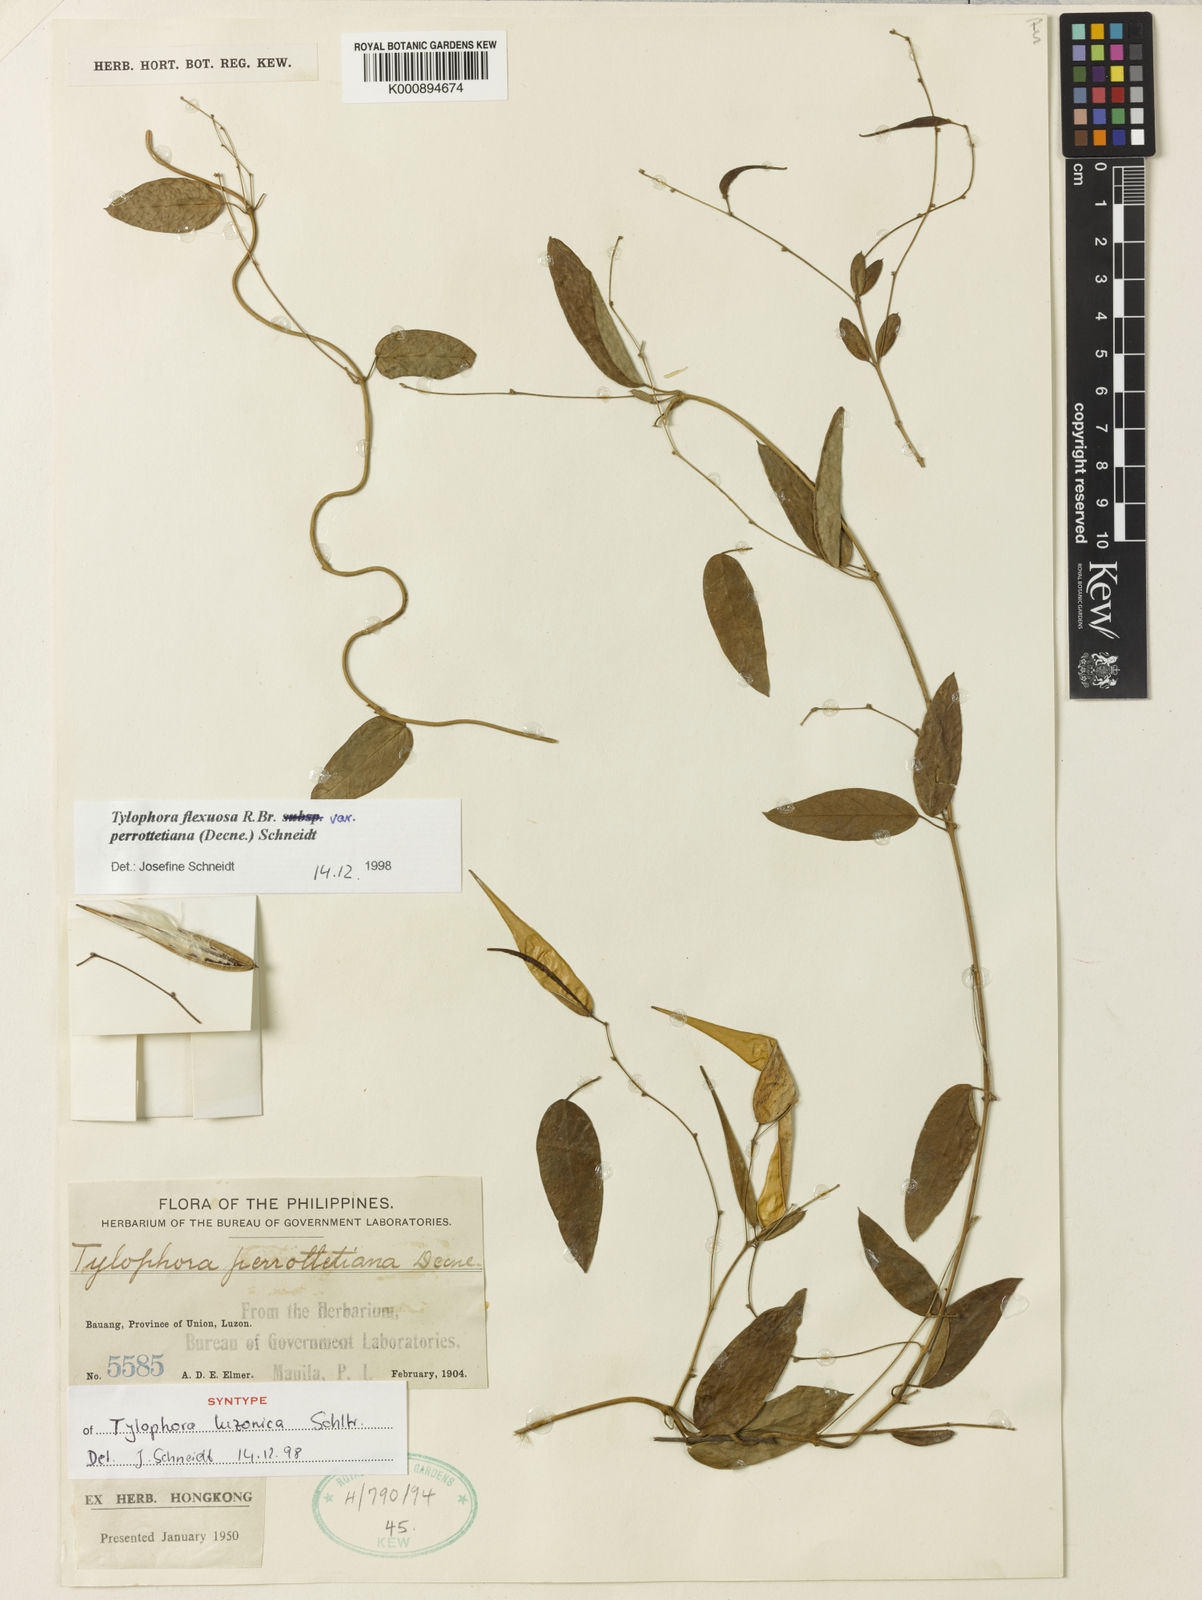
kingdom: Plantae
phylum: Tracheophyta
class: Magnoliopsida
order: Gentianales
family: Apocynaceae
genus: Vincetoxicum
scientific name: Vincetoxicum flexuosum
